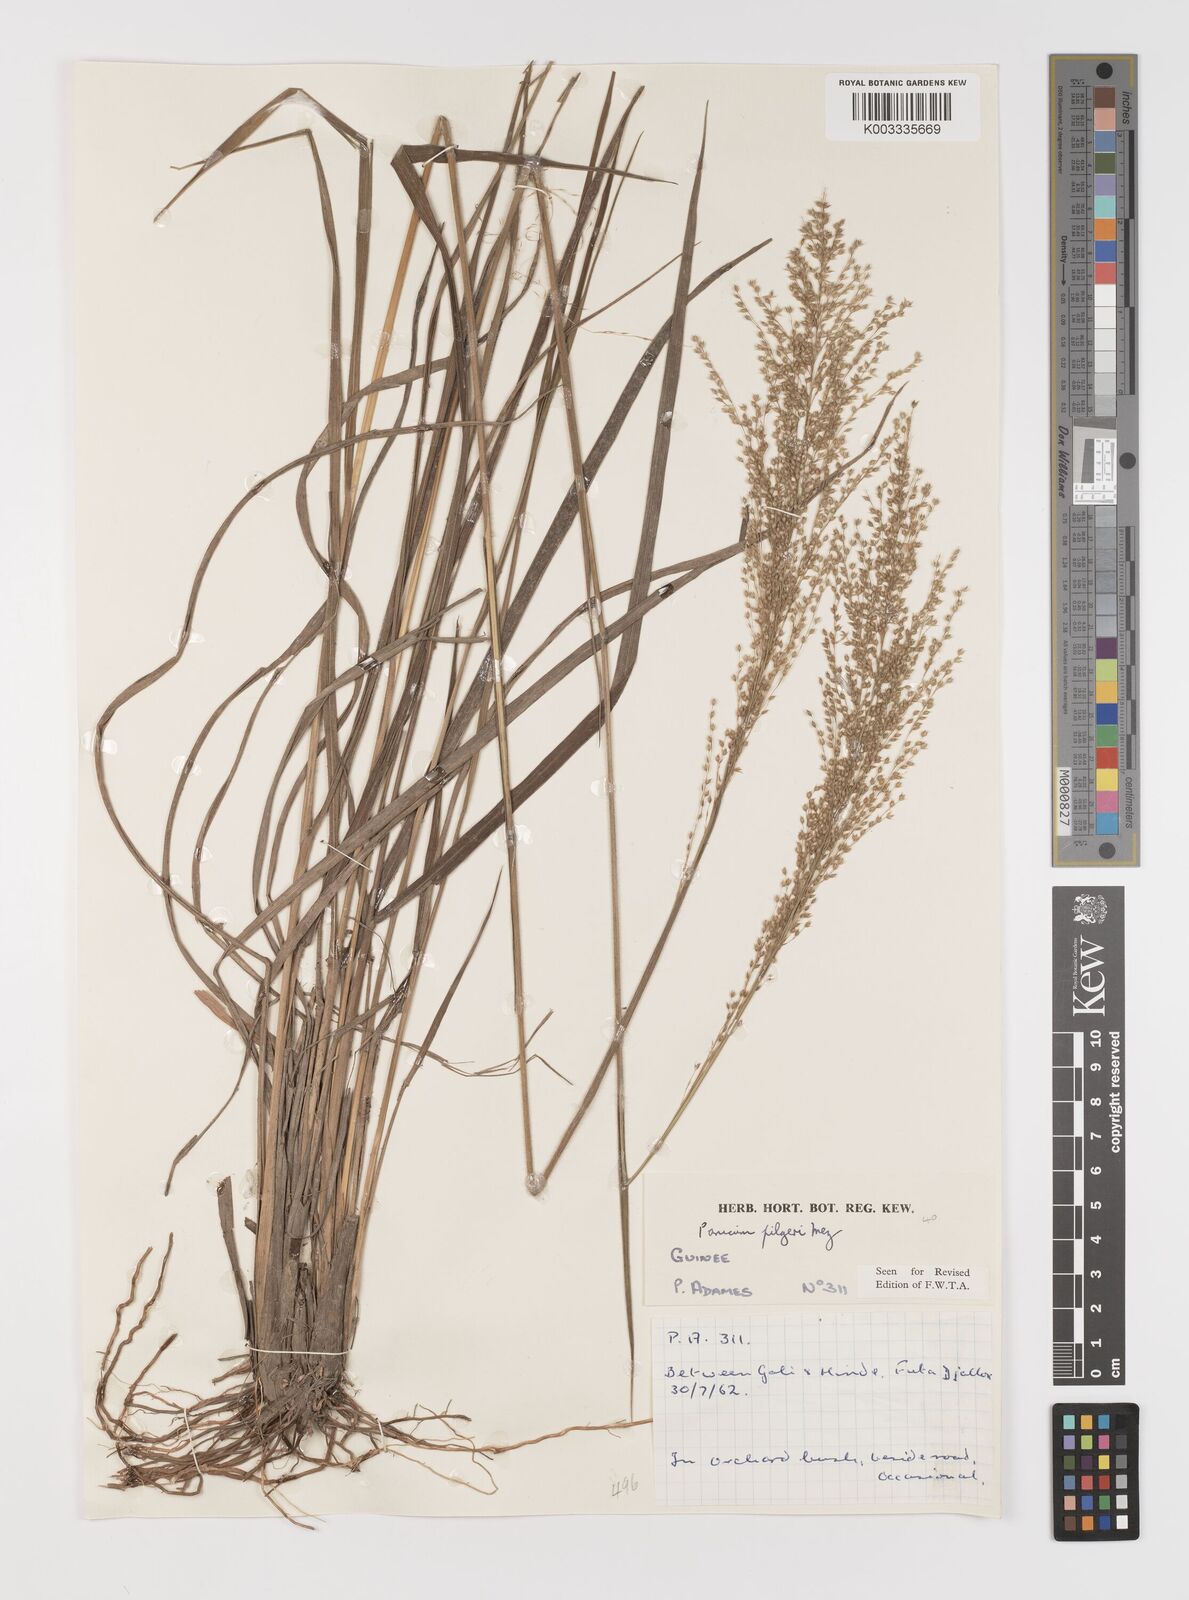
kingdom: Plantae
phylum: Tracheophyta
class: Liliopsida
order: Poales
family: Poaceae
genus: Panicum
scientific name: Panicum
